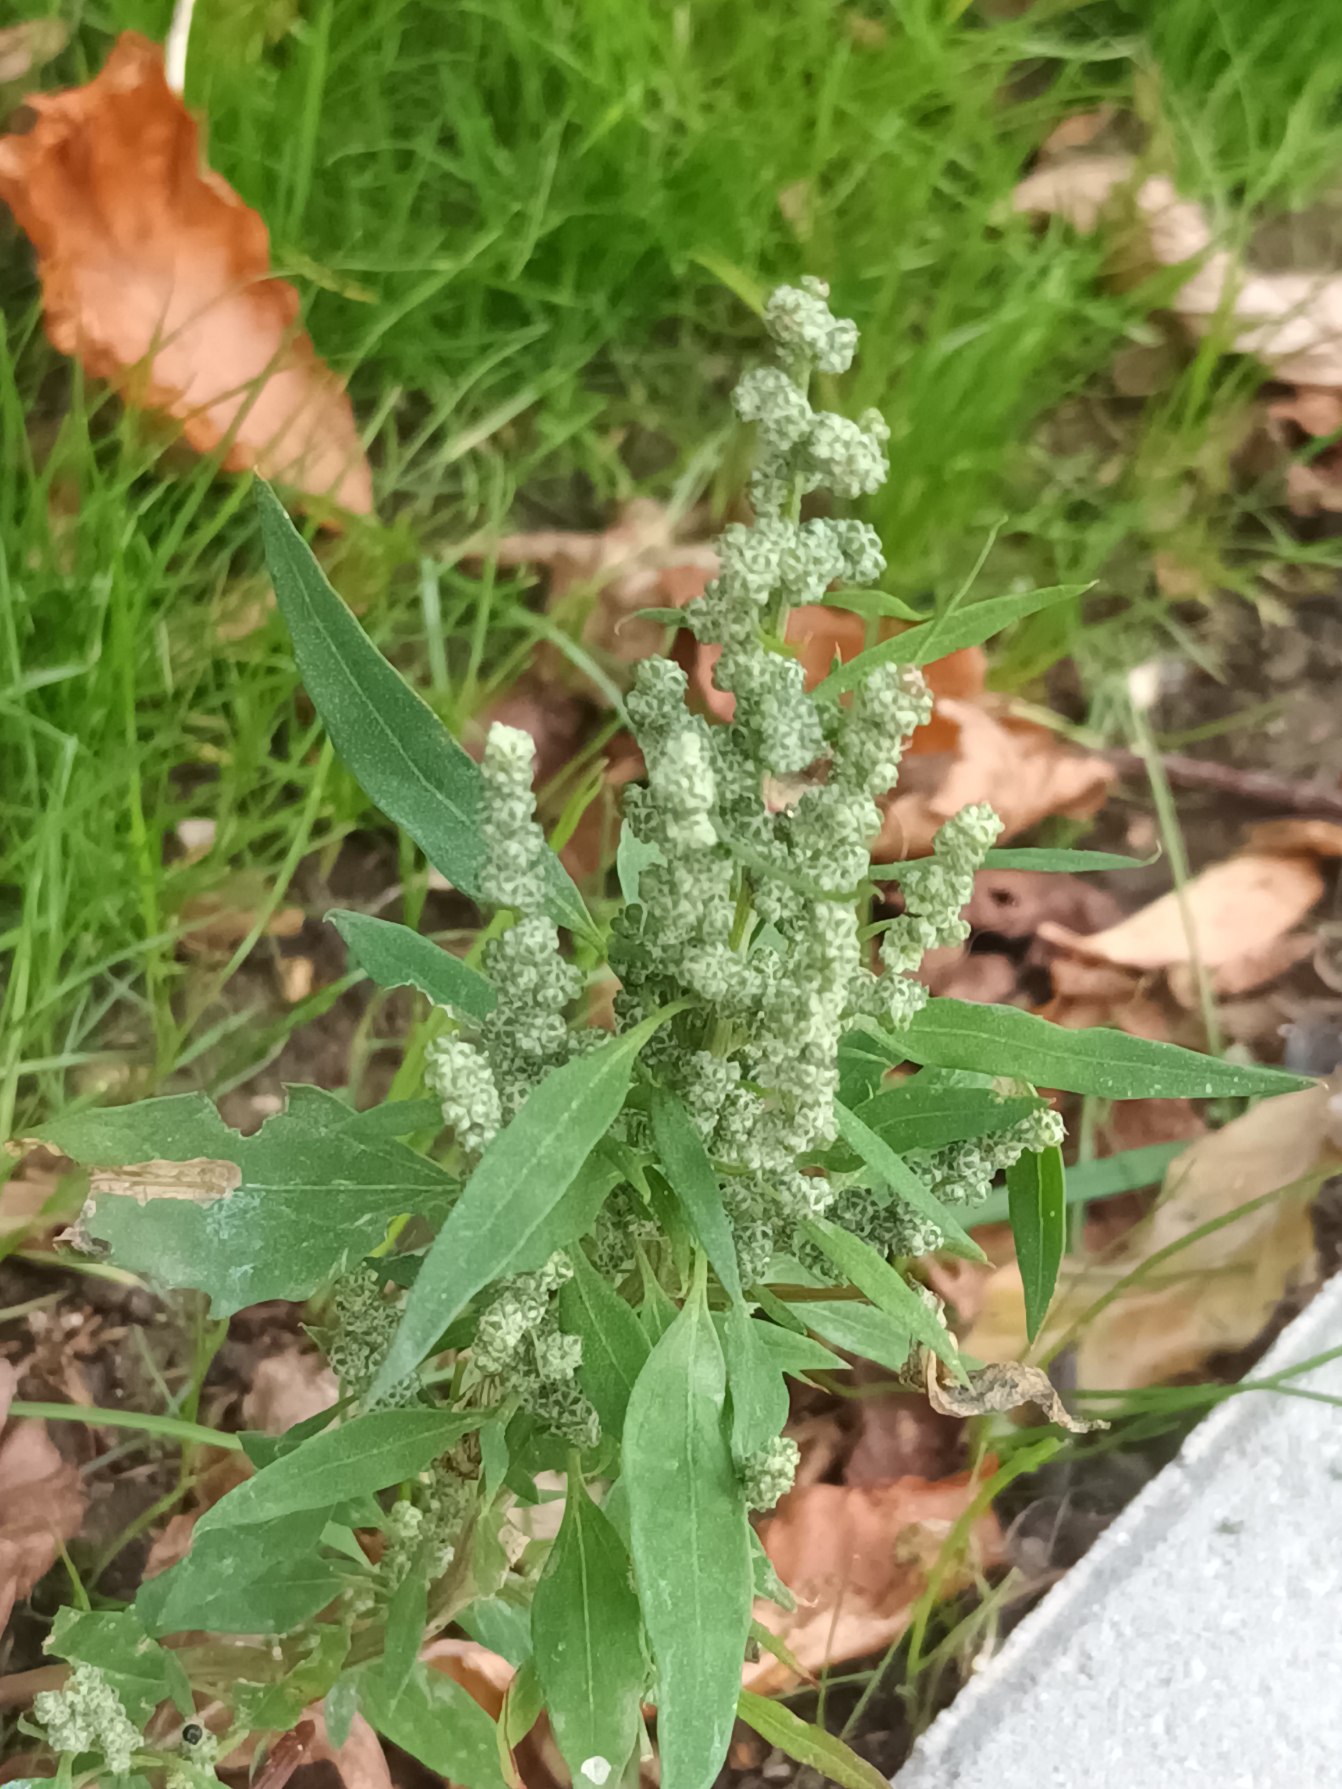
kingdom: Plantae
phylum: Tracheophyta
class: Magnoliopsida
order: Caryophyllales
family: Amaranthaceae
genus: Chenopodium
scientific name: Chenopodium album
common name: Hvidmelet gåsefod
